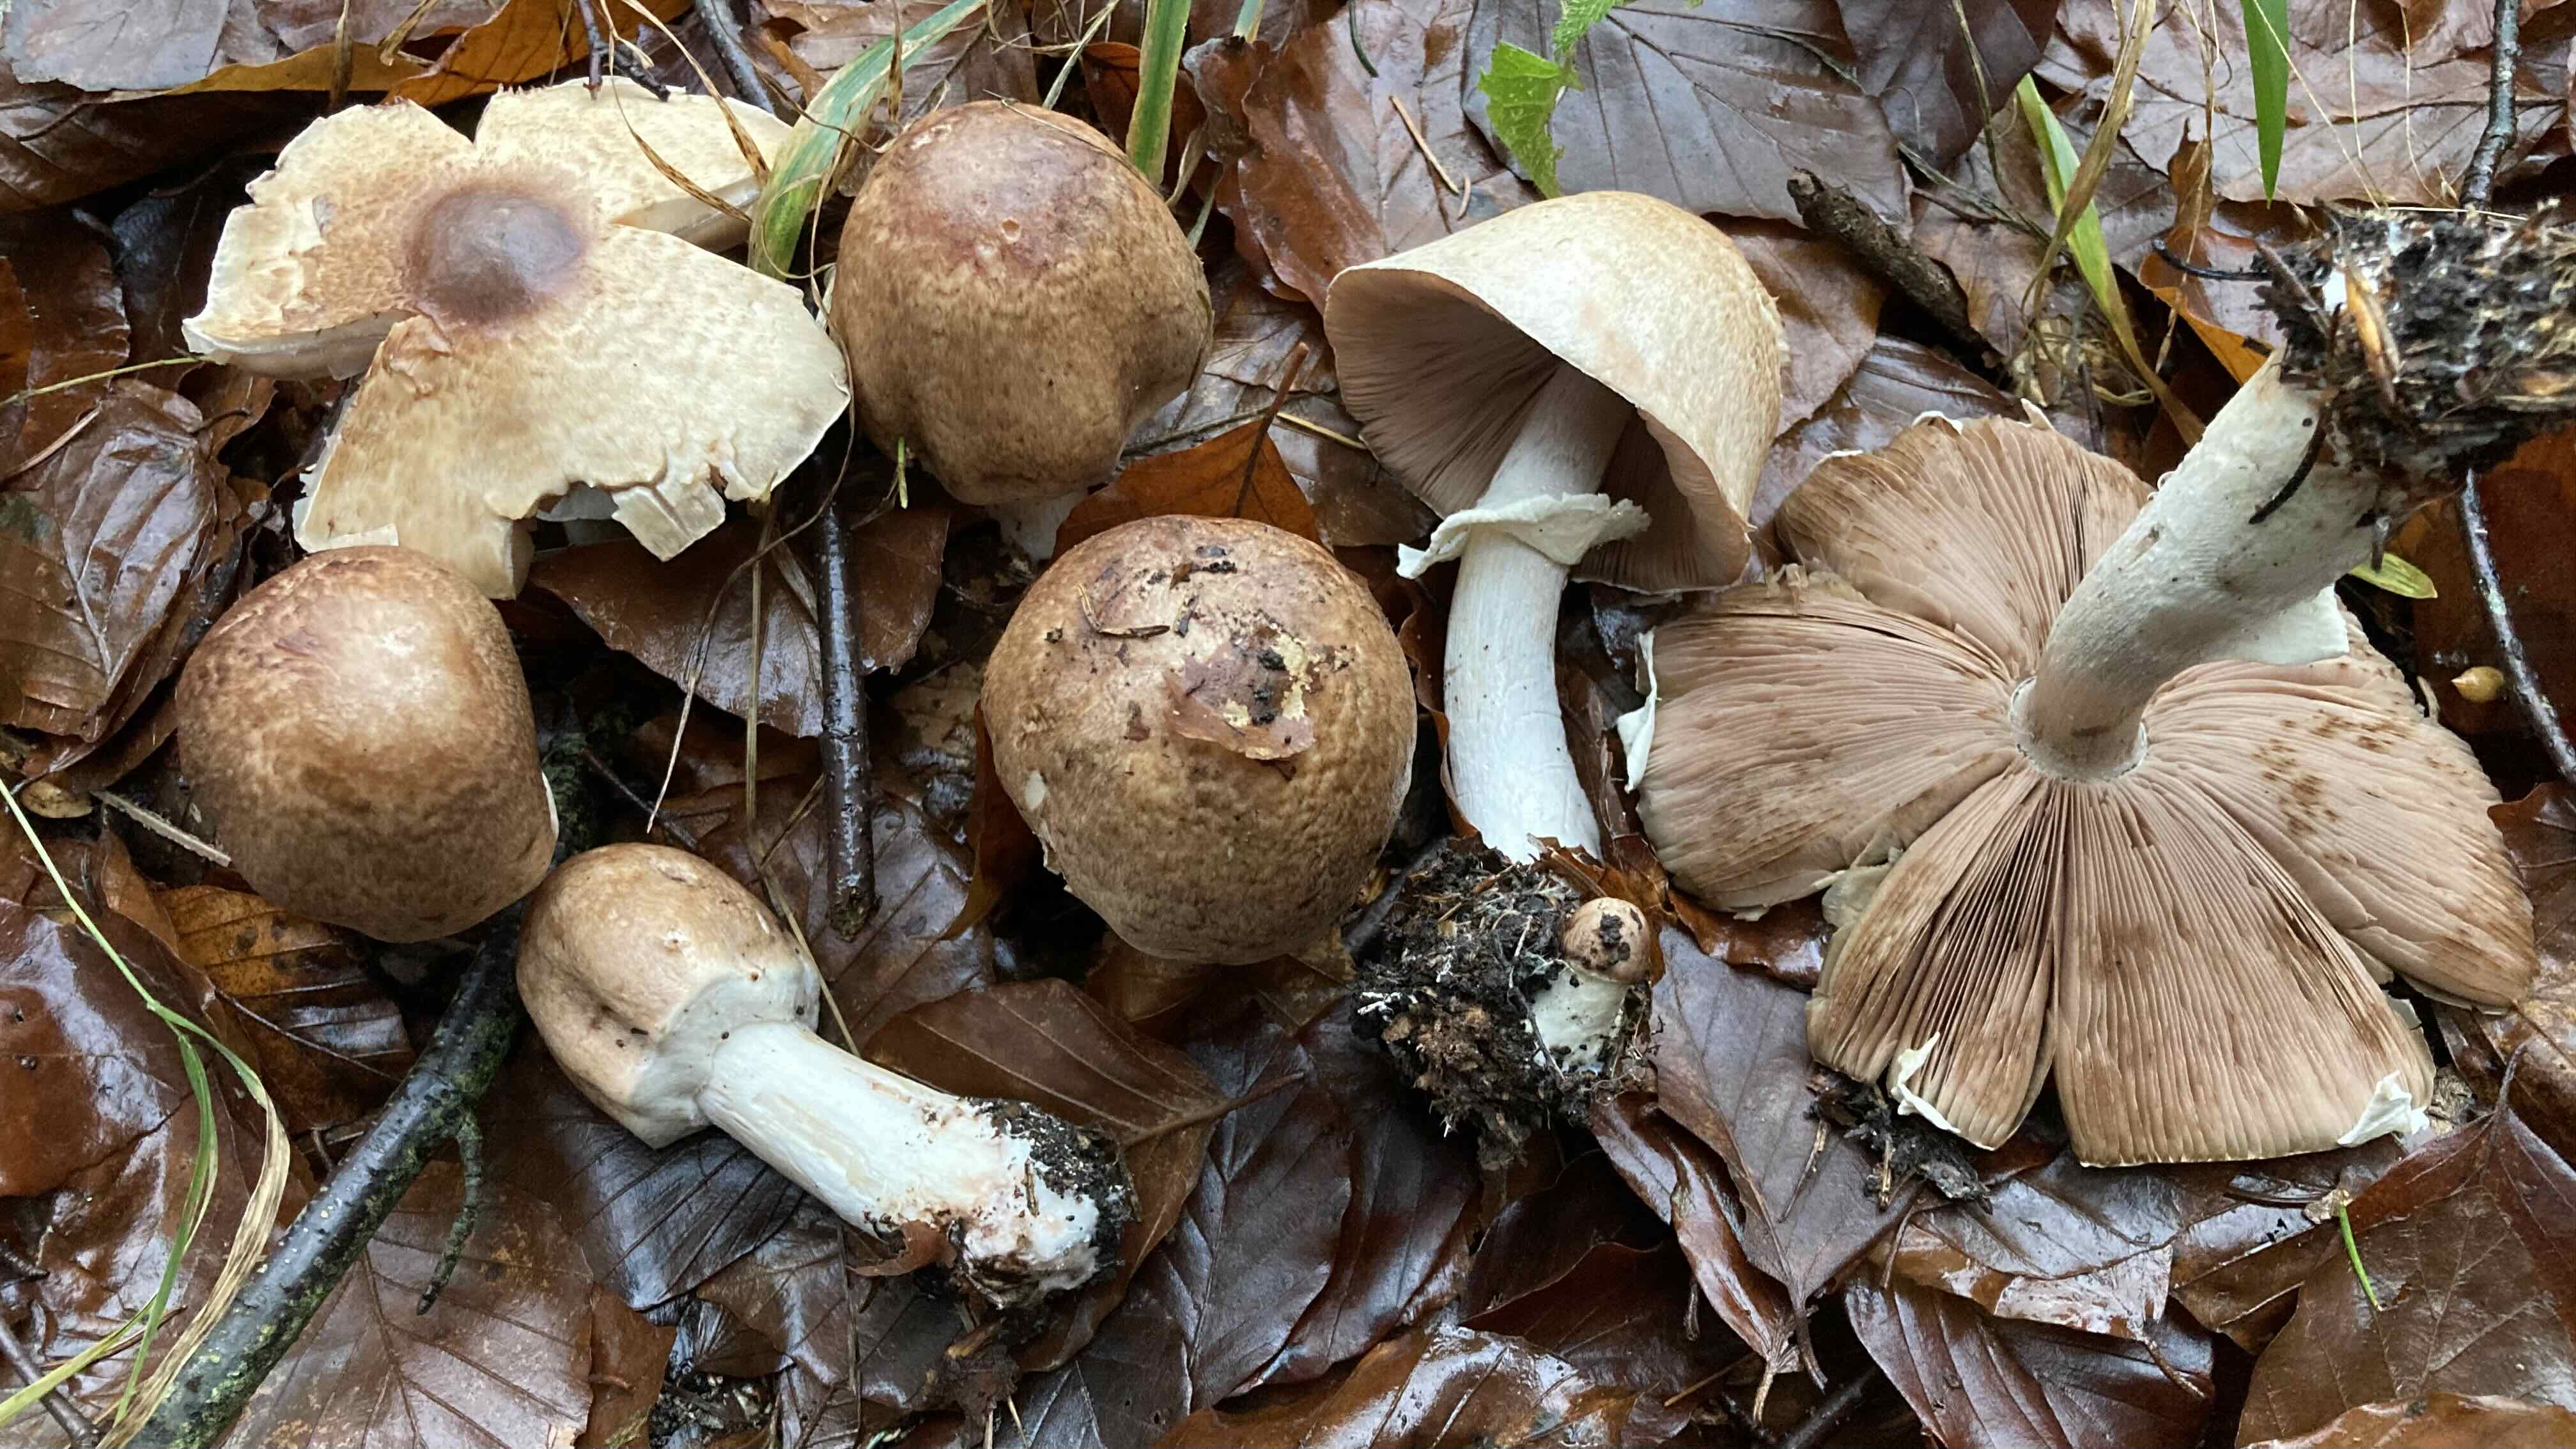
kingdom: Fungi
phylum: Basidiomycota
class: Agaricomycetes
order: Agaricales
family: Agaricaceae
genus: Agaricus
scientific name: Agaricus impudicus
